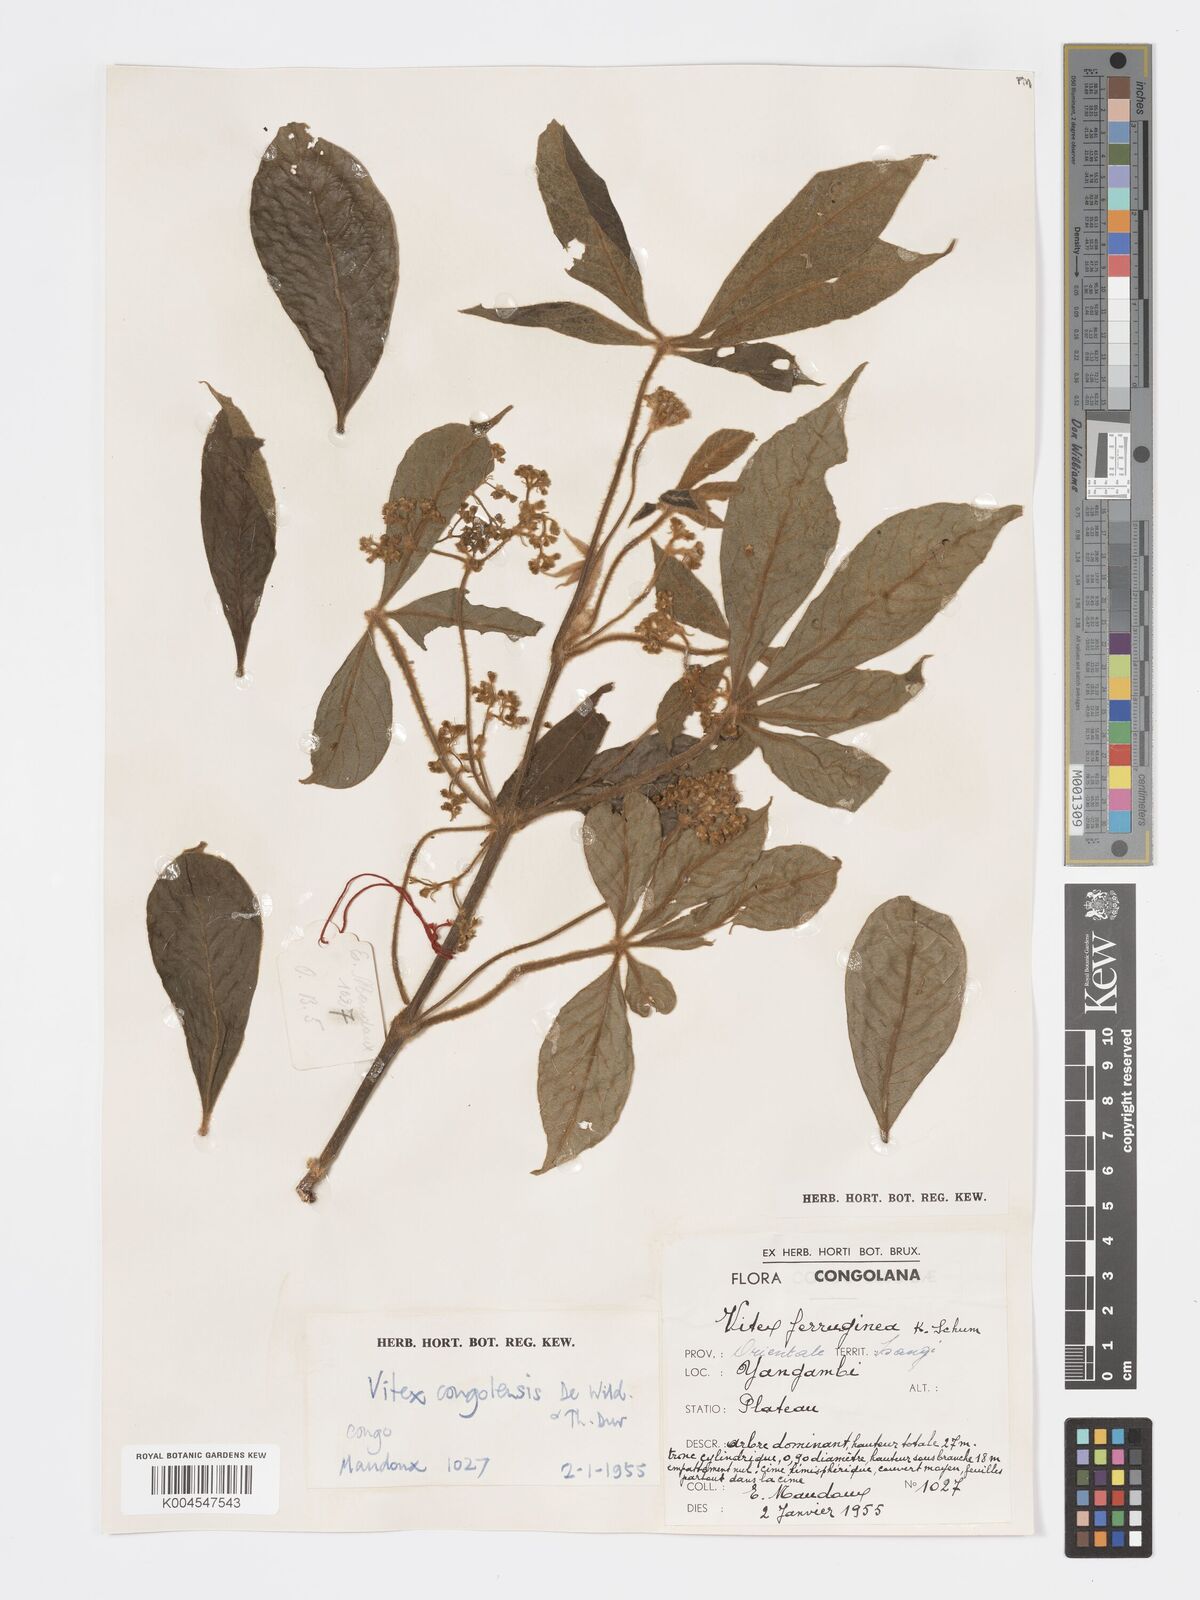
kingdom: Plantae
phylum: Tracheophyta
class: Magnoliopsida
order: Lamiales
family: Lamiaceae
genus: Vitex
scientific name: Vitex congolensis
